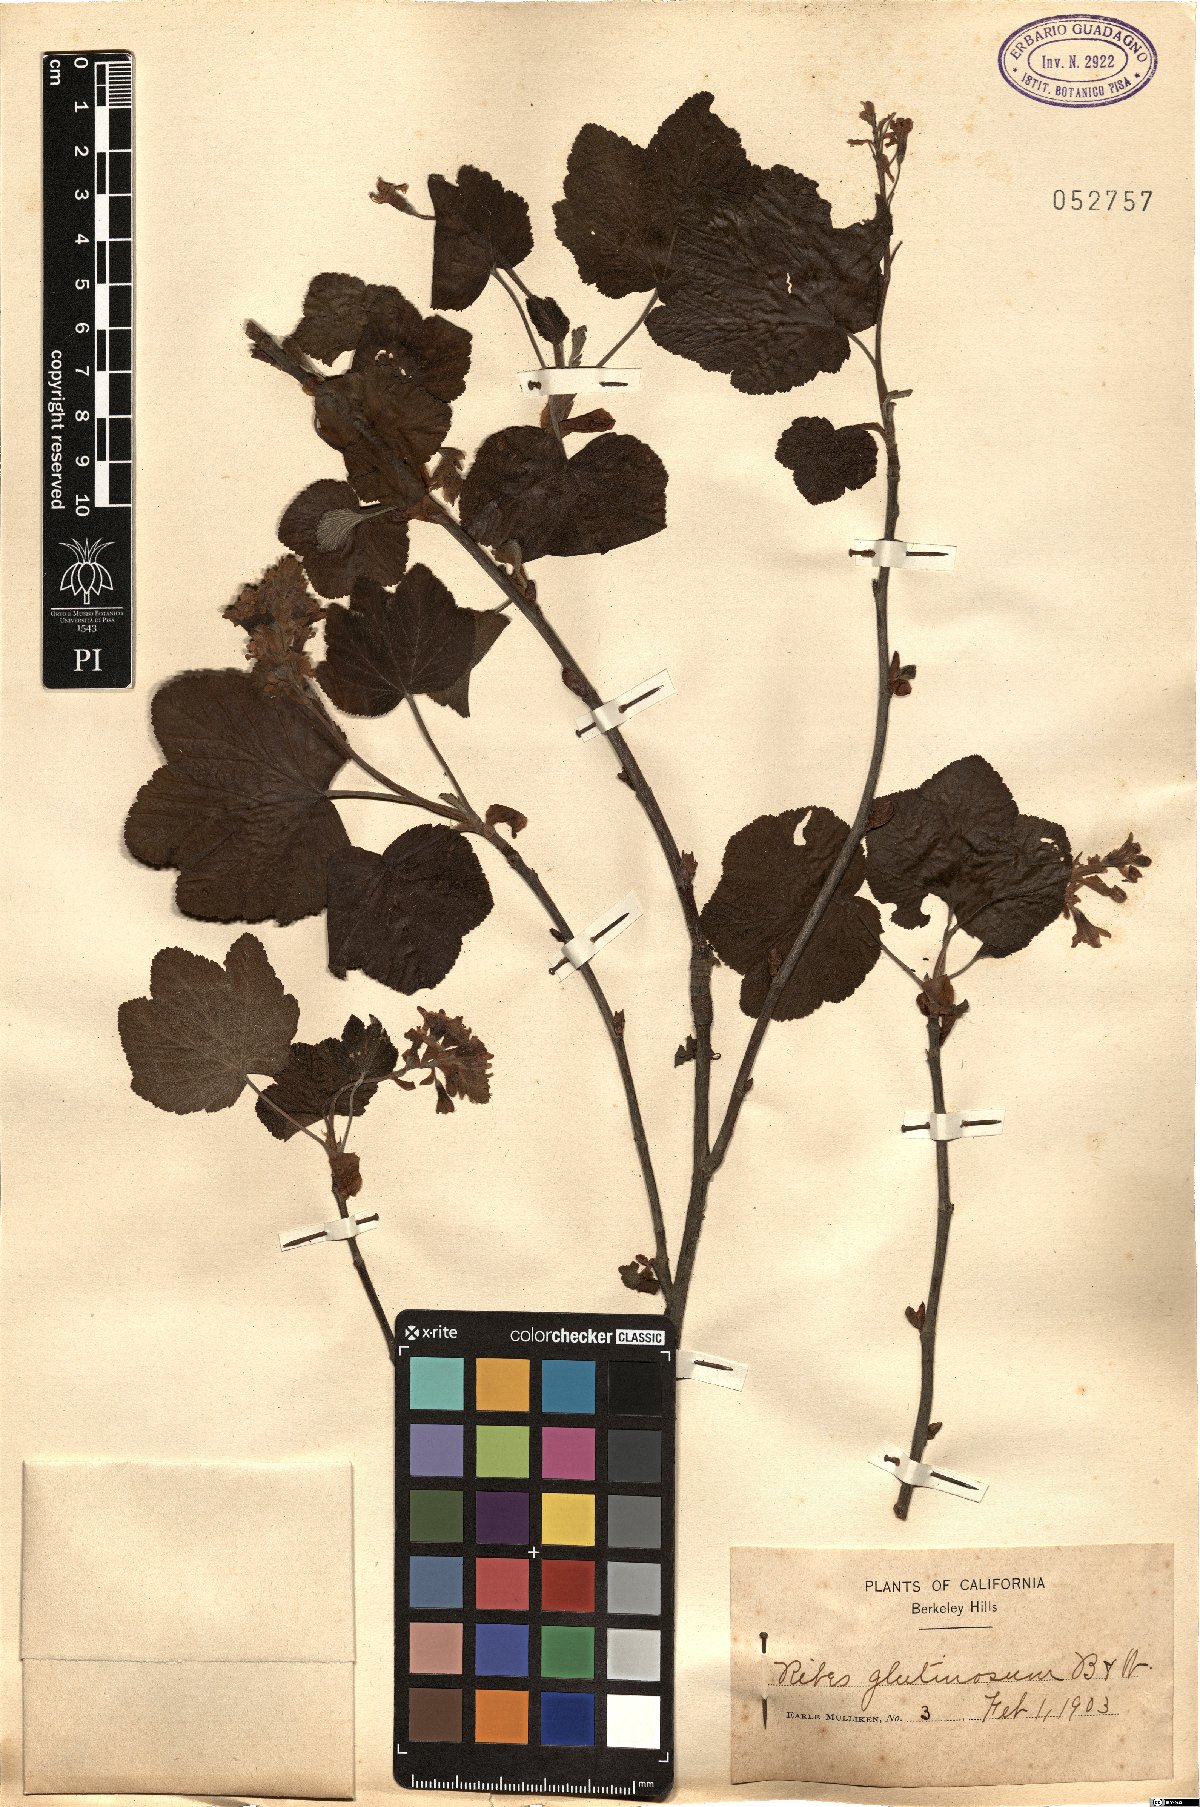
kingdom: Plantae
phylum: Tracheophyta
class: Magnoliopsida
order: Saxifragales
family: Grossulariaceae
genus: Ribes
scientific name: Ribes sanguineum
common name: Flowering currant
